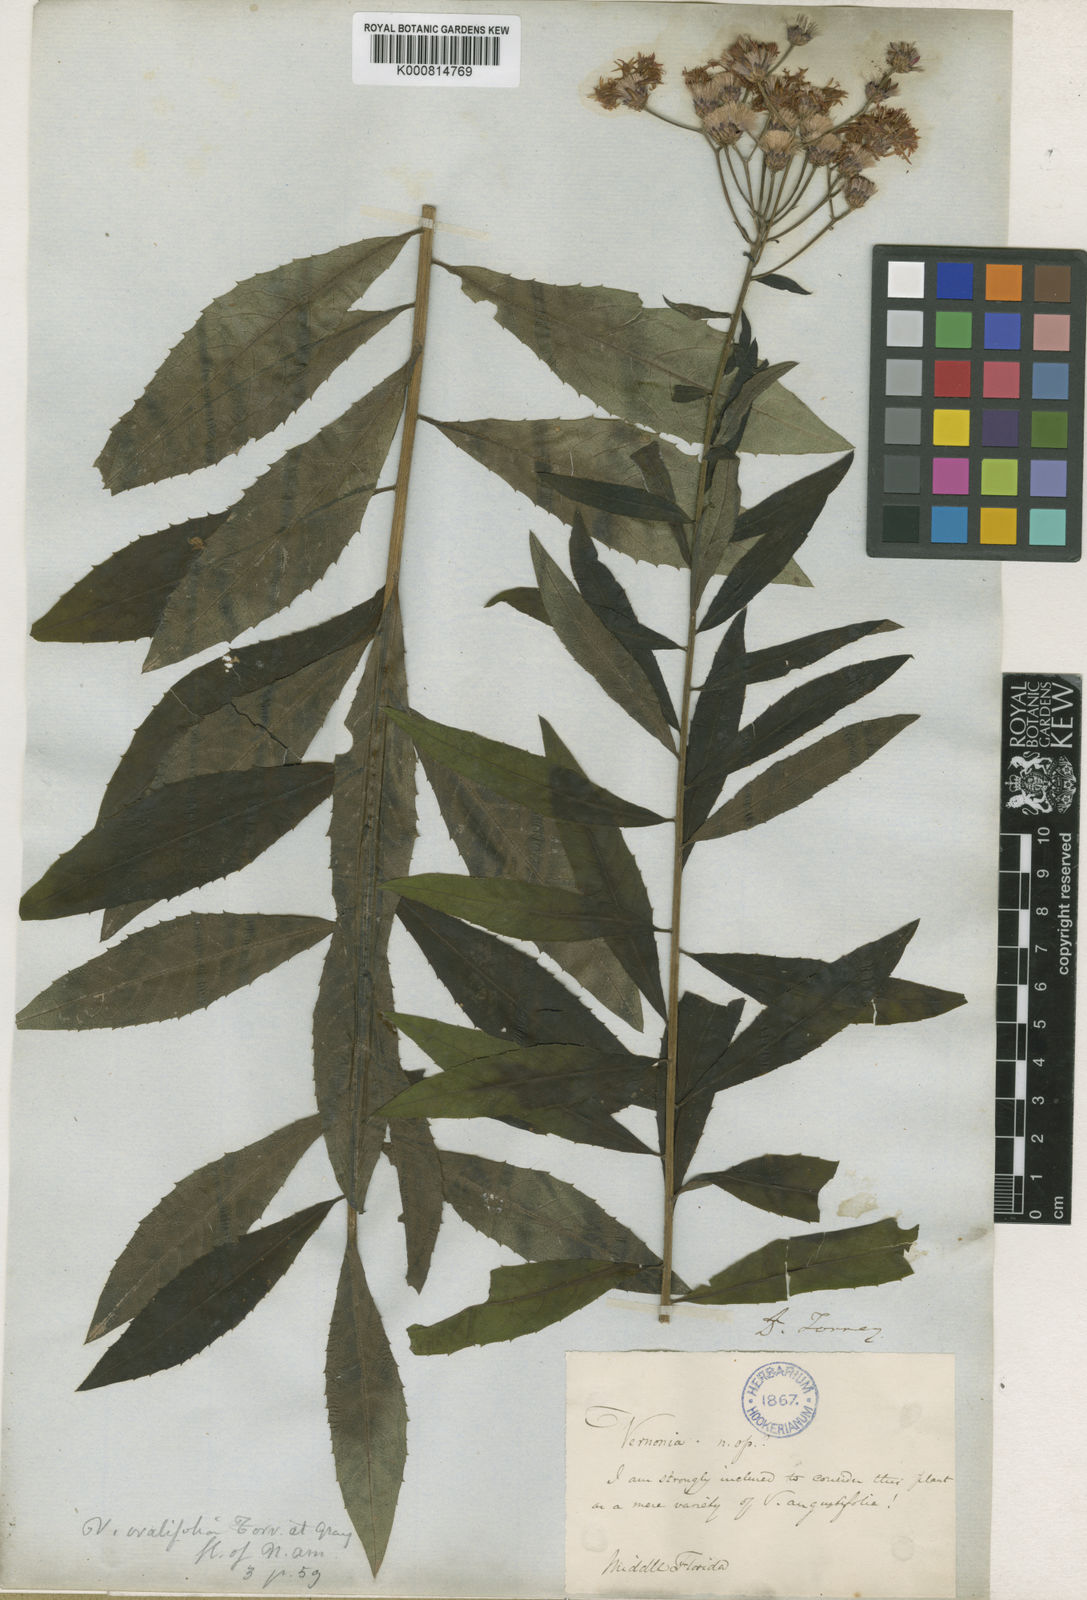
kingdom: Plantae
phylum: Tracheophyta
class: Magnoliopsida
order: Asterales
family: Asteraceae
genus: Vernonia
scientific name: Vernonia gigantea
